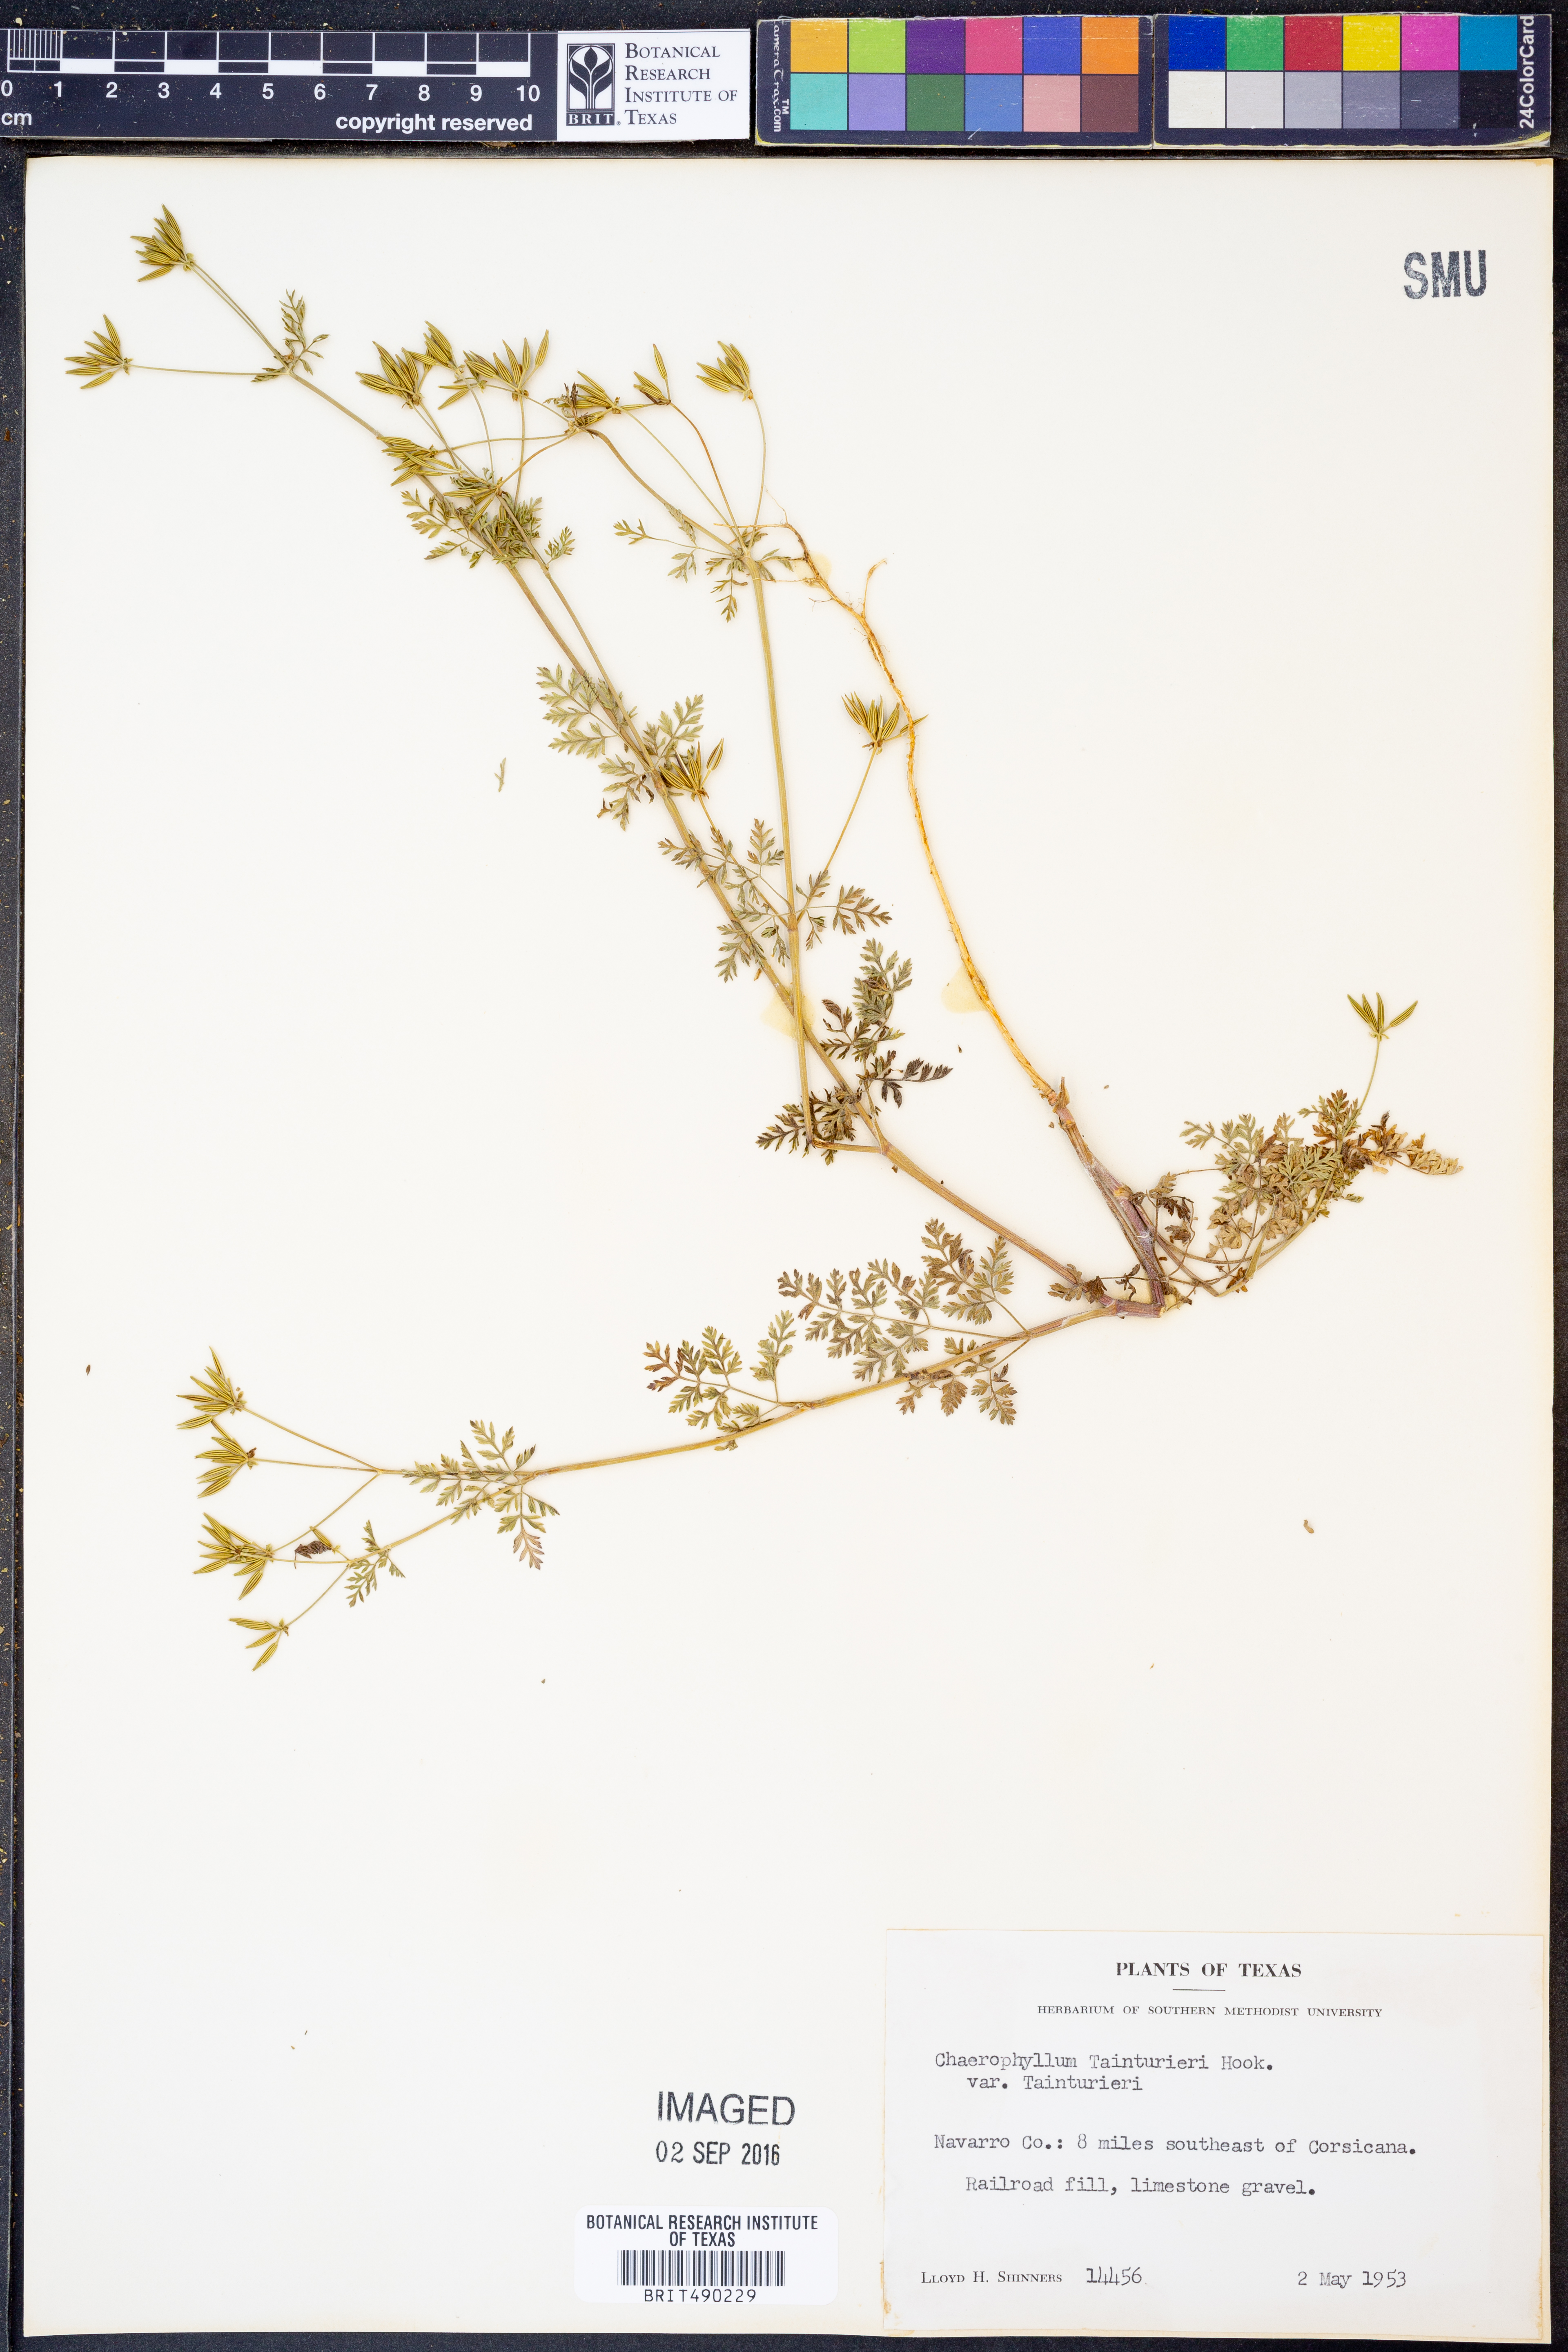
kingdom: Plantae
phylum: Tracheophyta
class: Magnoliopsida
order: Apiales
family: Apiaceae
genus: Chaerophyllum
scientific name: Chaerophyllum tainturieri
